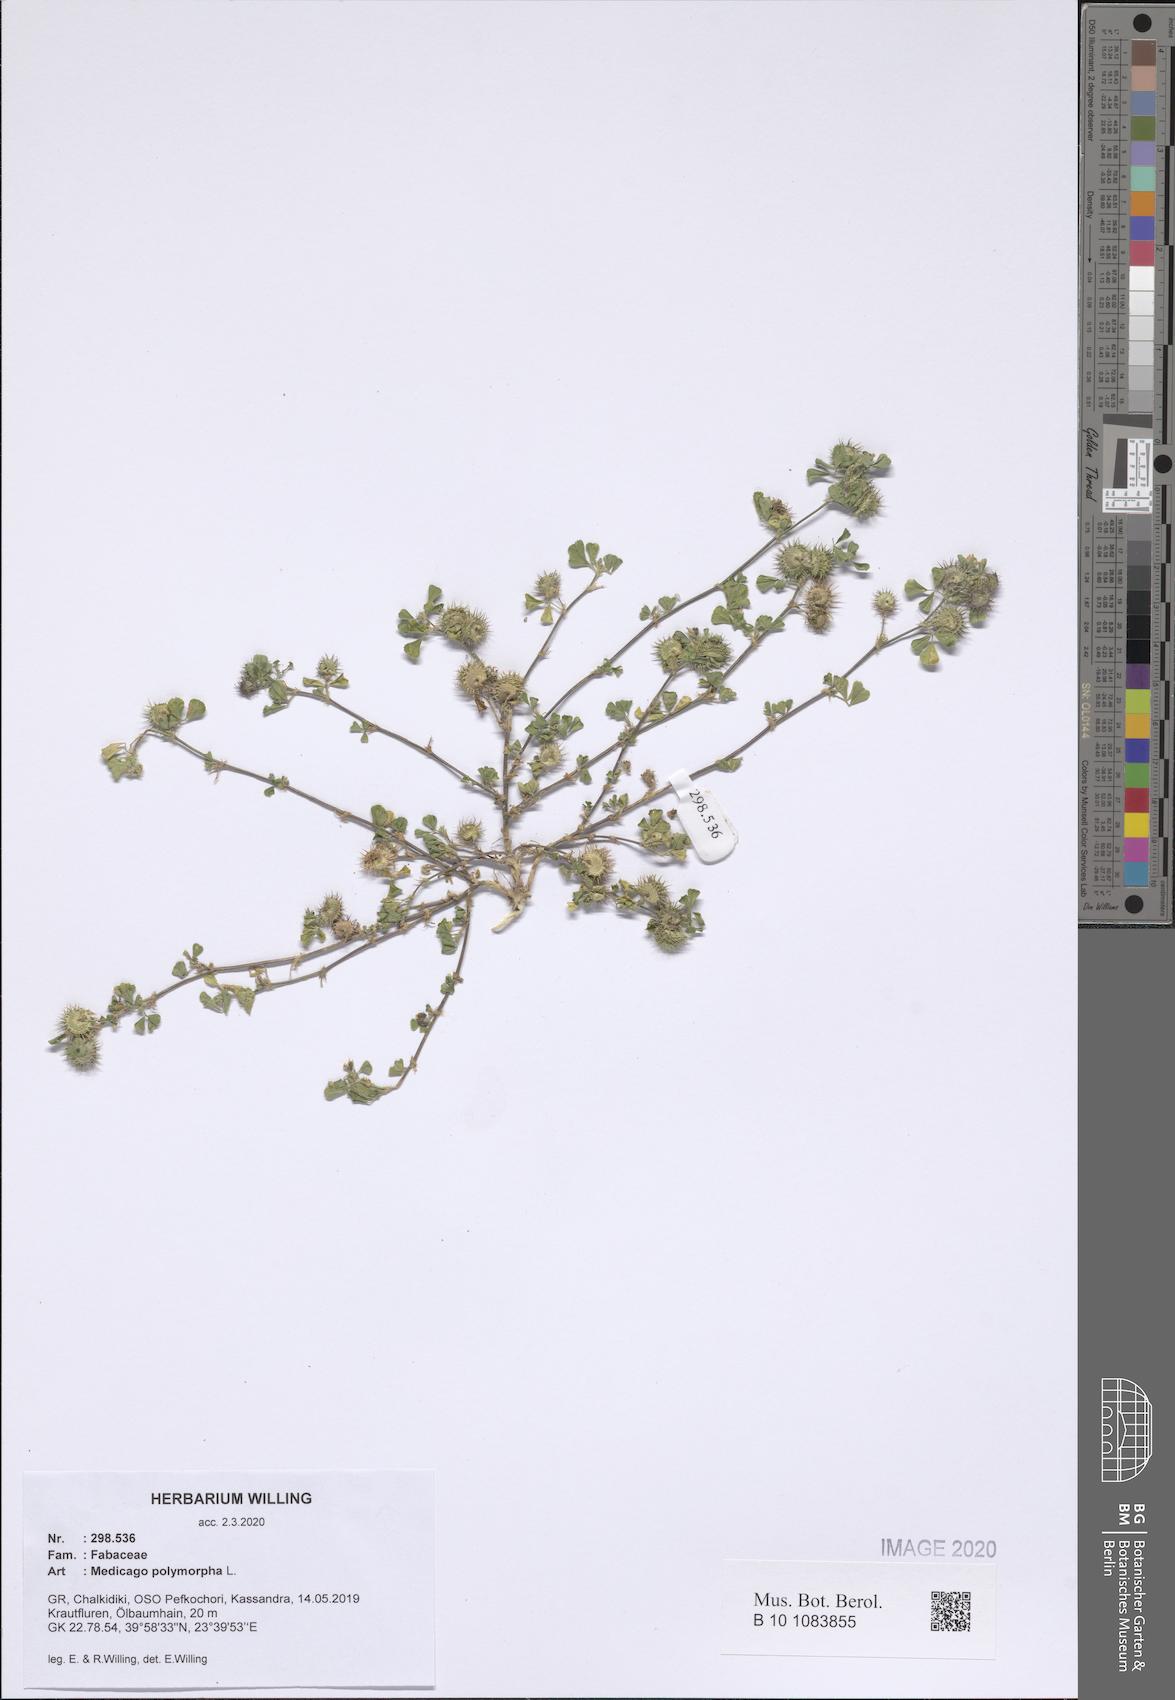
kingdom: Plantae
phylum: Tracheophyta
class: Magnoliopsida
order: Fabales
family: Fabaceae
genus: Medicago
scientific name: Medicago polymorpha
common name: Burclover
